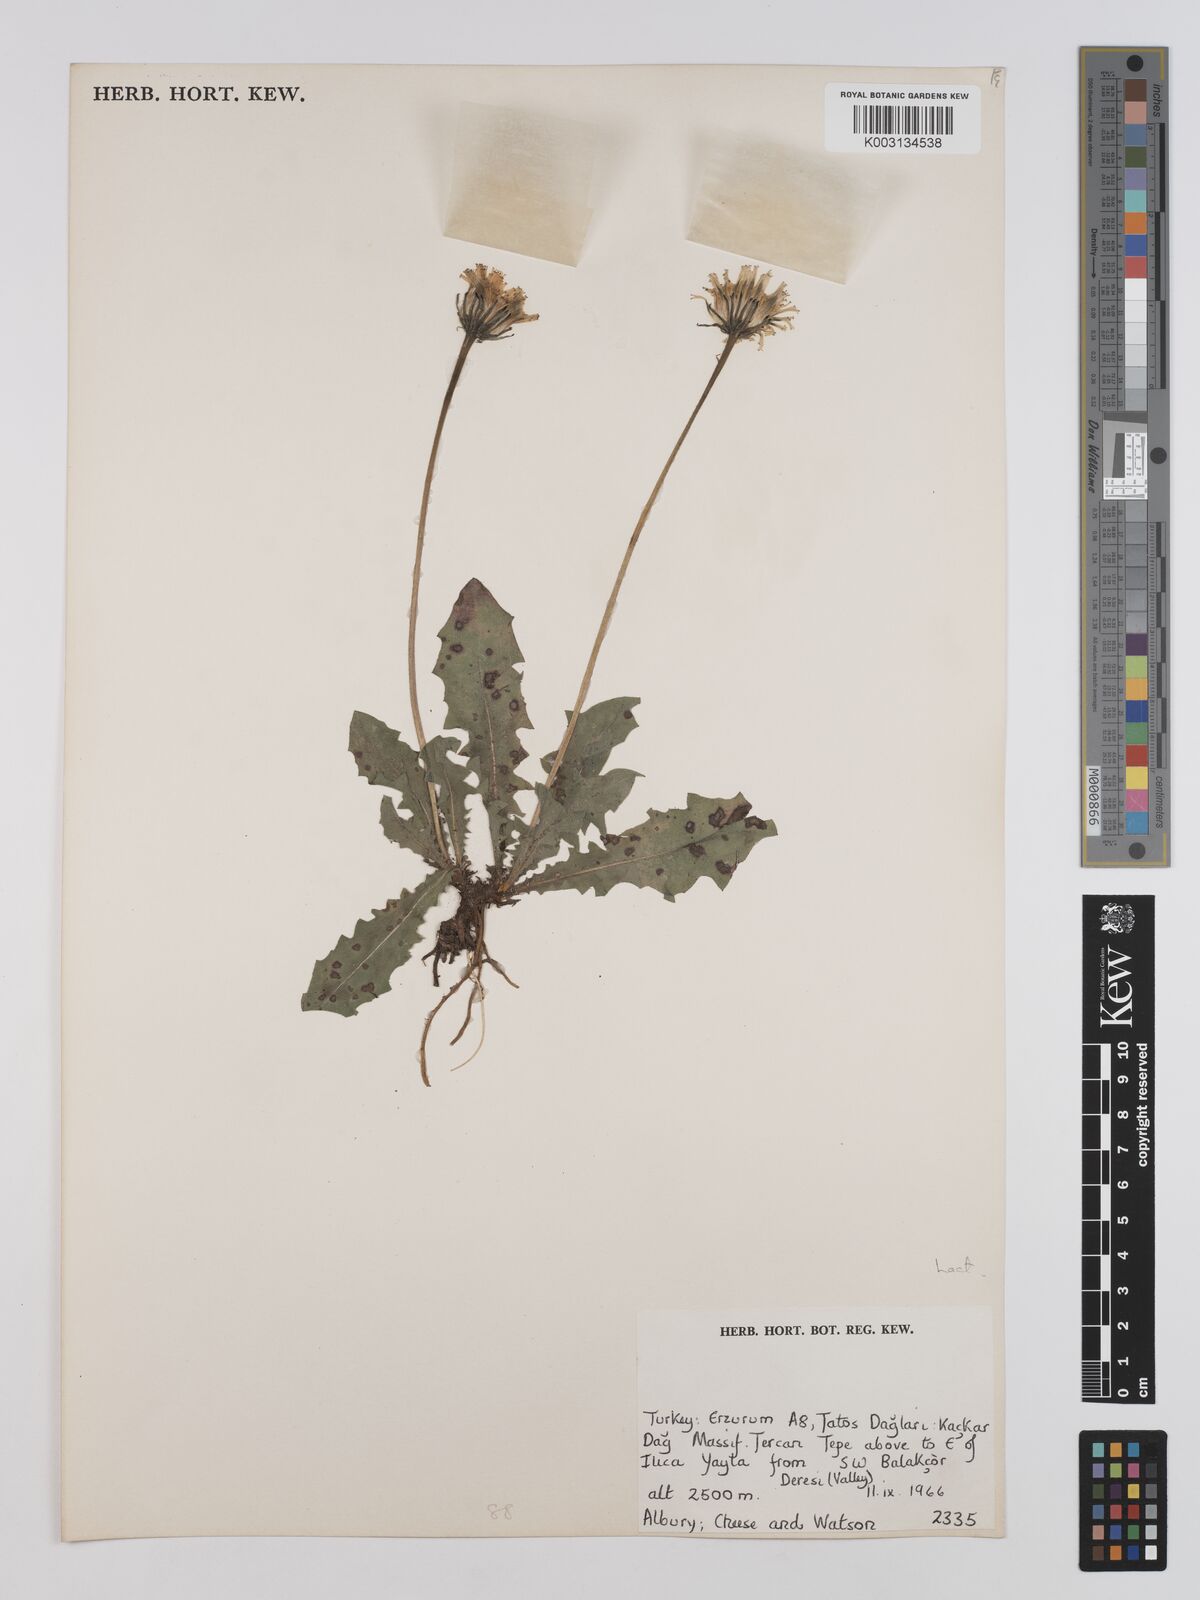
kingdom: Plantae
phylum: Tracheophyta
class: Magnoliopsida
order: Asterales
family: Asteraceae
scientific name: Asteraceae
